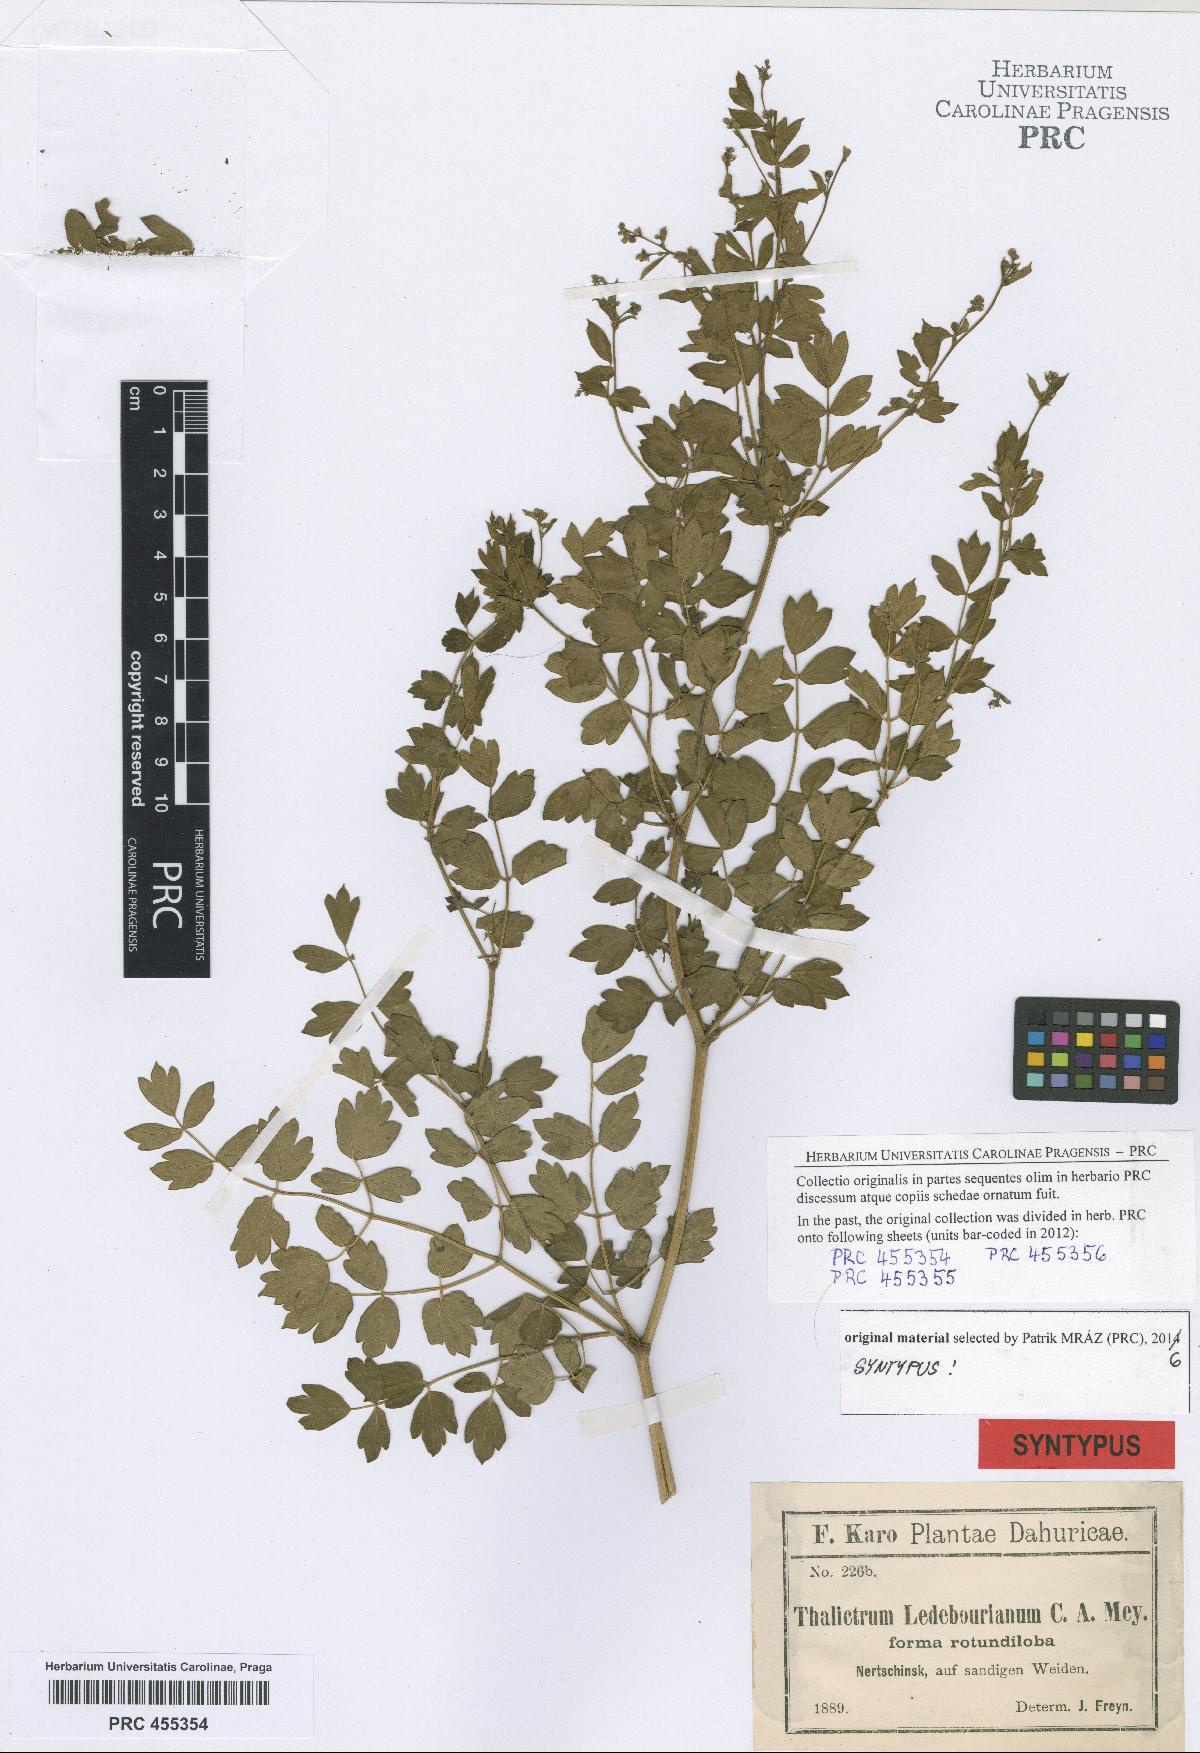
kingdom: Plantae
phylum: Tracheophyta
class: Magnoliopsida
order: Ranunculales
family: Ranunculaceae
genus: Thalictrum
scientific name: Thalictrum squarrosum
